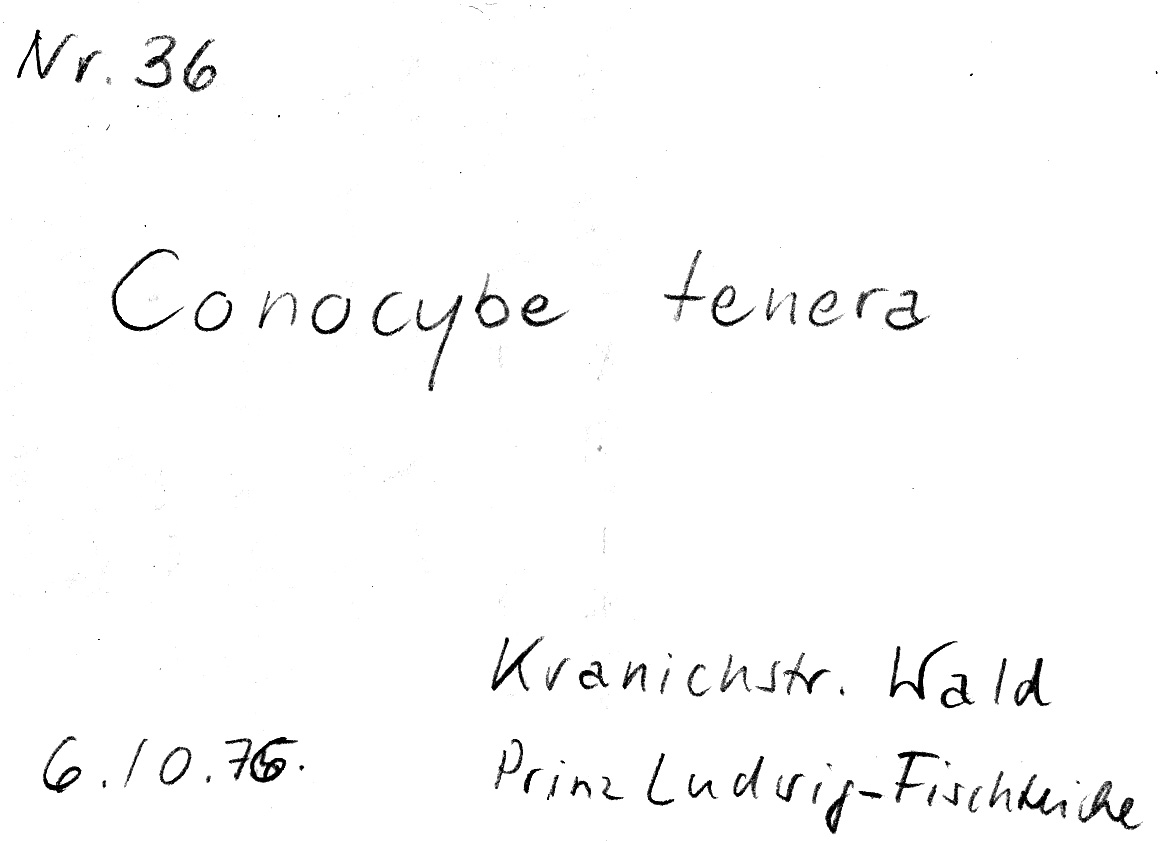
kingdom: Fungi
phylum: Basidiomycota
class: Agaricomycetes
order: Agaricales
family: Bolbitiaceae
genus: Conocybe
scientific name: Conocybe pulchella
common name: Beautiful conecap
